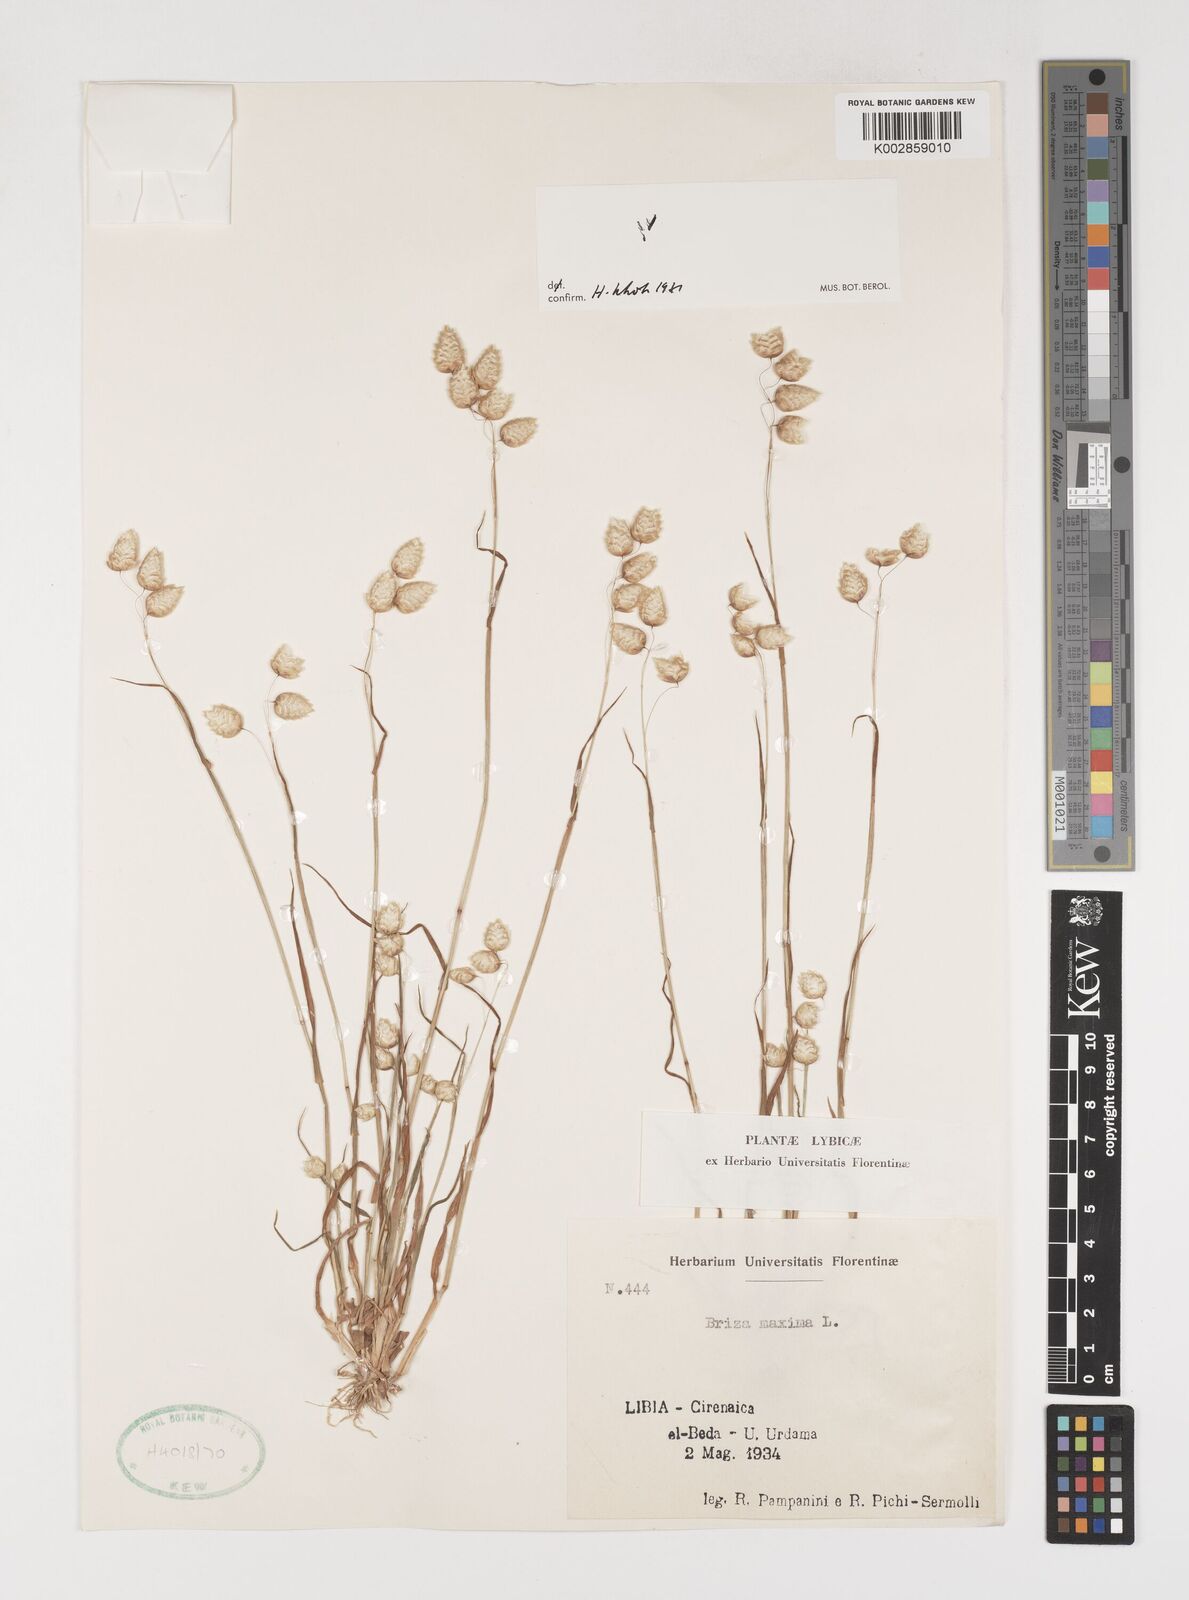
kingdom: Plantae
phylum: Tracheophyta
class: Liliopsida
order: Poales
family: Poaceae
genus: Briza
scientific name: Briza maxima
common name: Big quakinggrass
